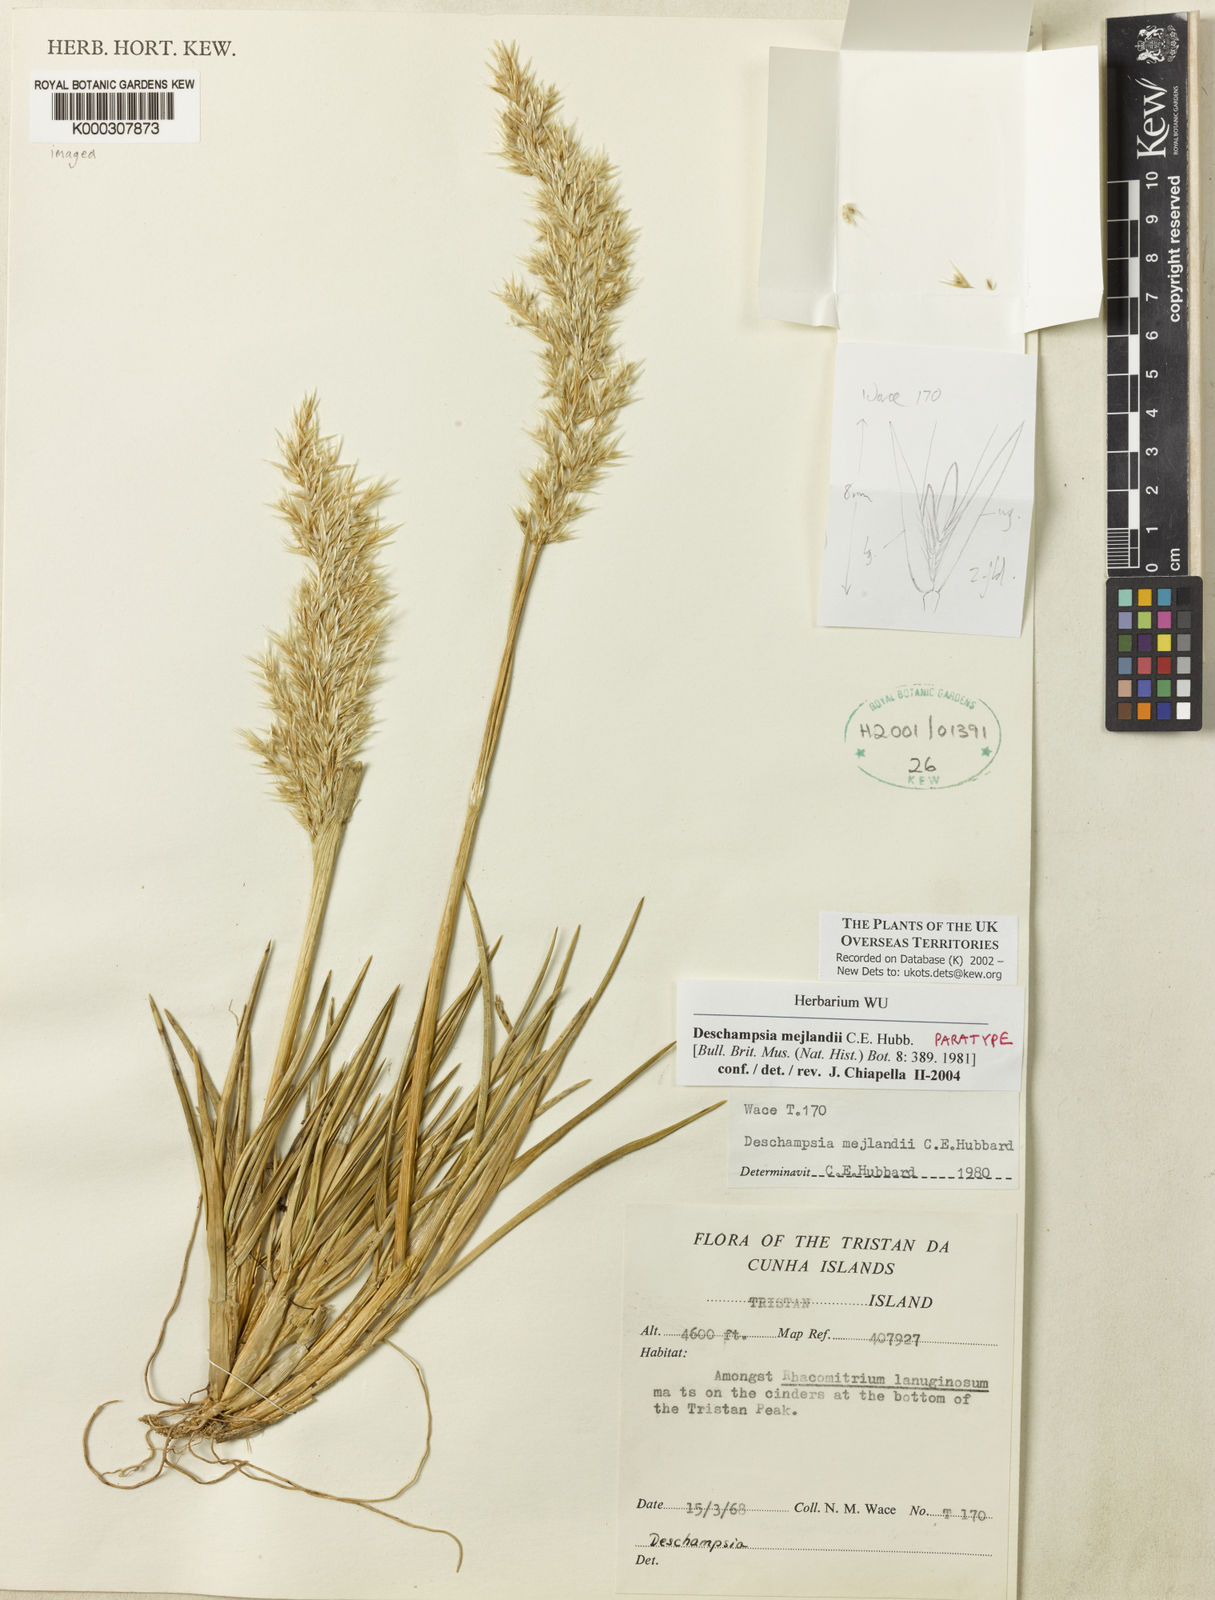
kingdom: Plantae
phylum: Tracheophyta
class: Liliopsida
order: Poales
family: Poaceae
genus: Deschampsia
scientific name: Deschampsia mejlandii
